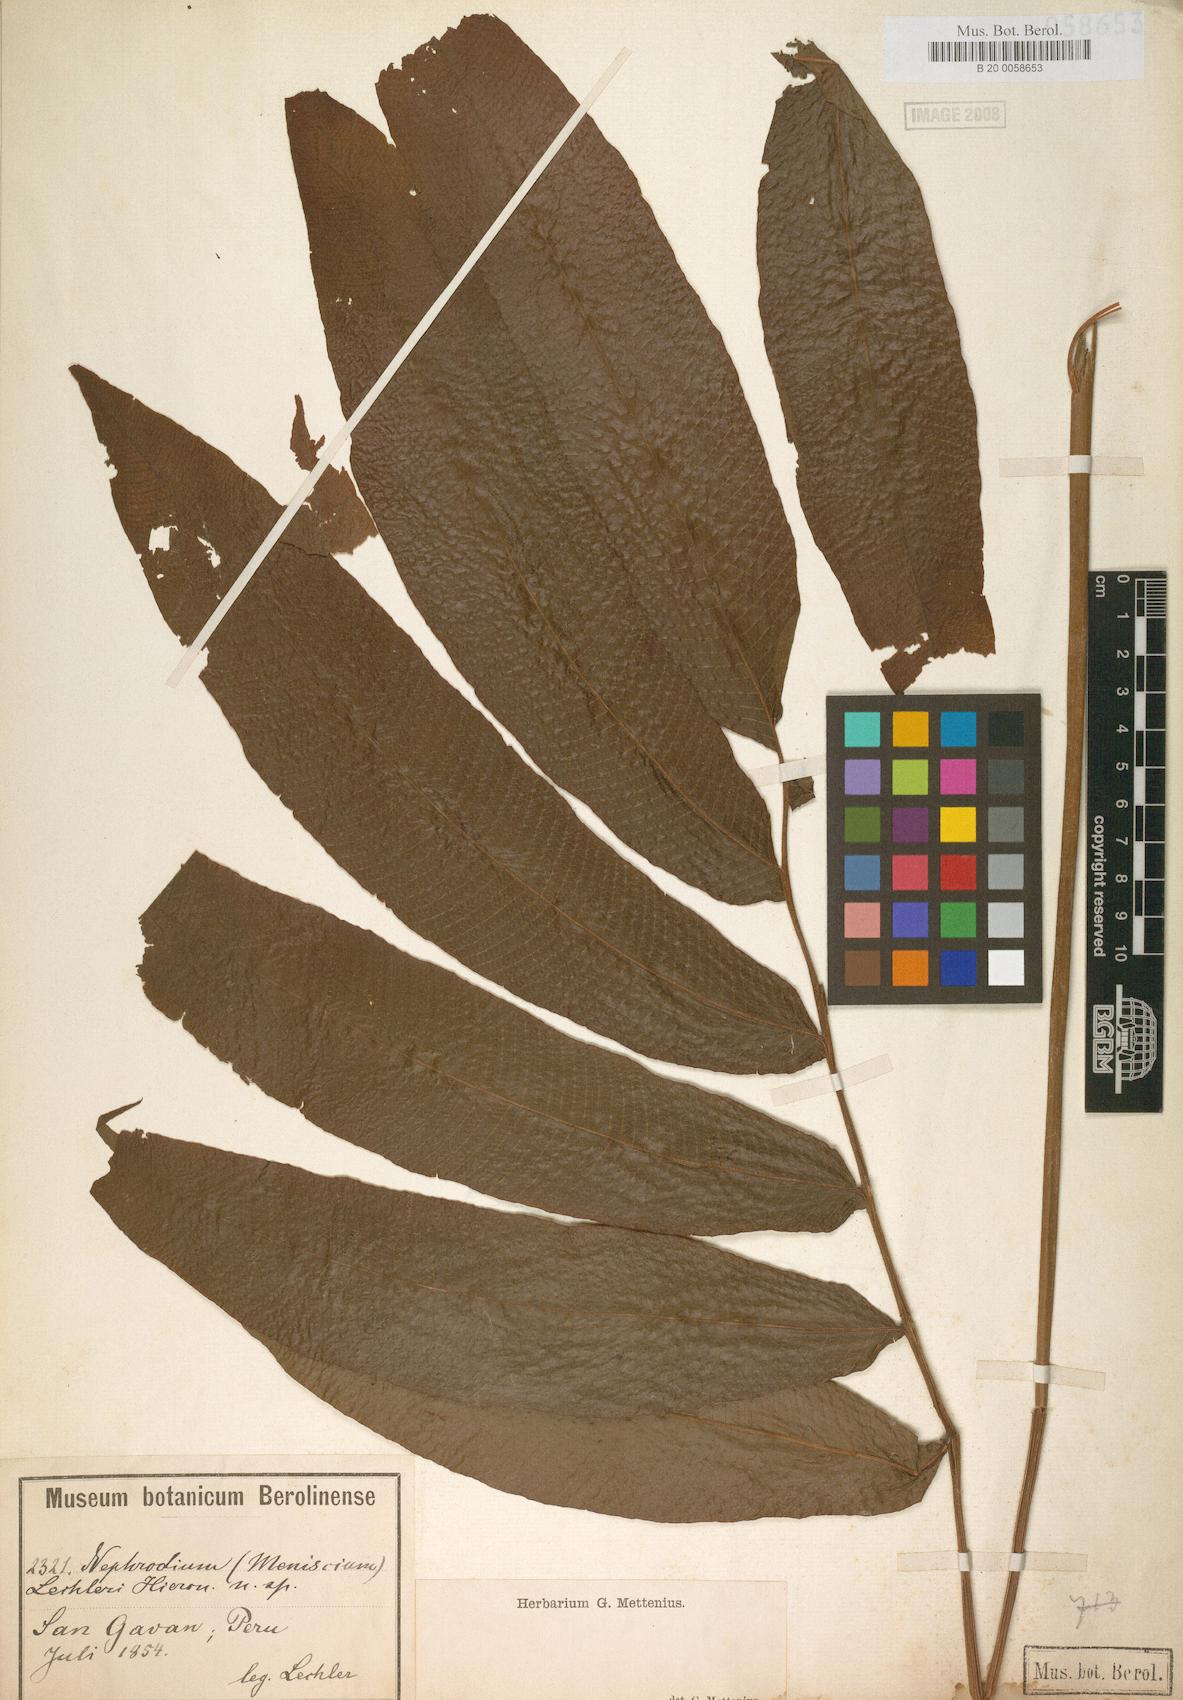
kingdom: Plantae
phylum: Tracheophyta
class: Polypodiopsida
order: Polypodiales
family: Thelypteridaceae
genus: Meniscium
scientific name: Meniscium membranaceum
